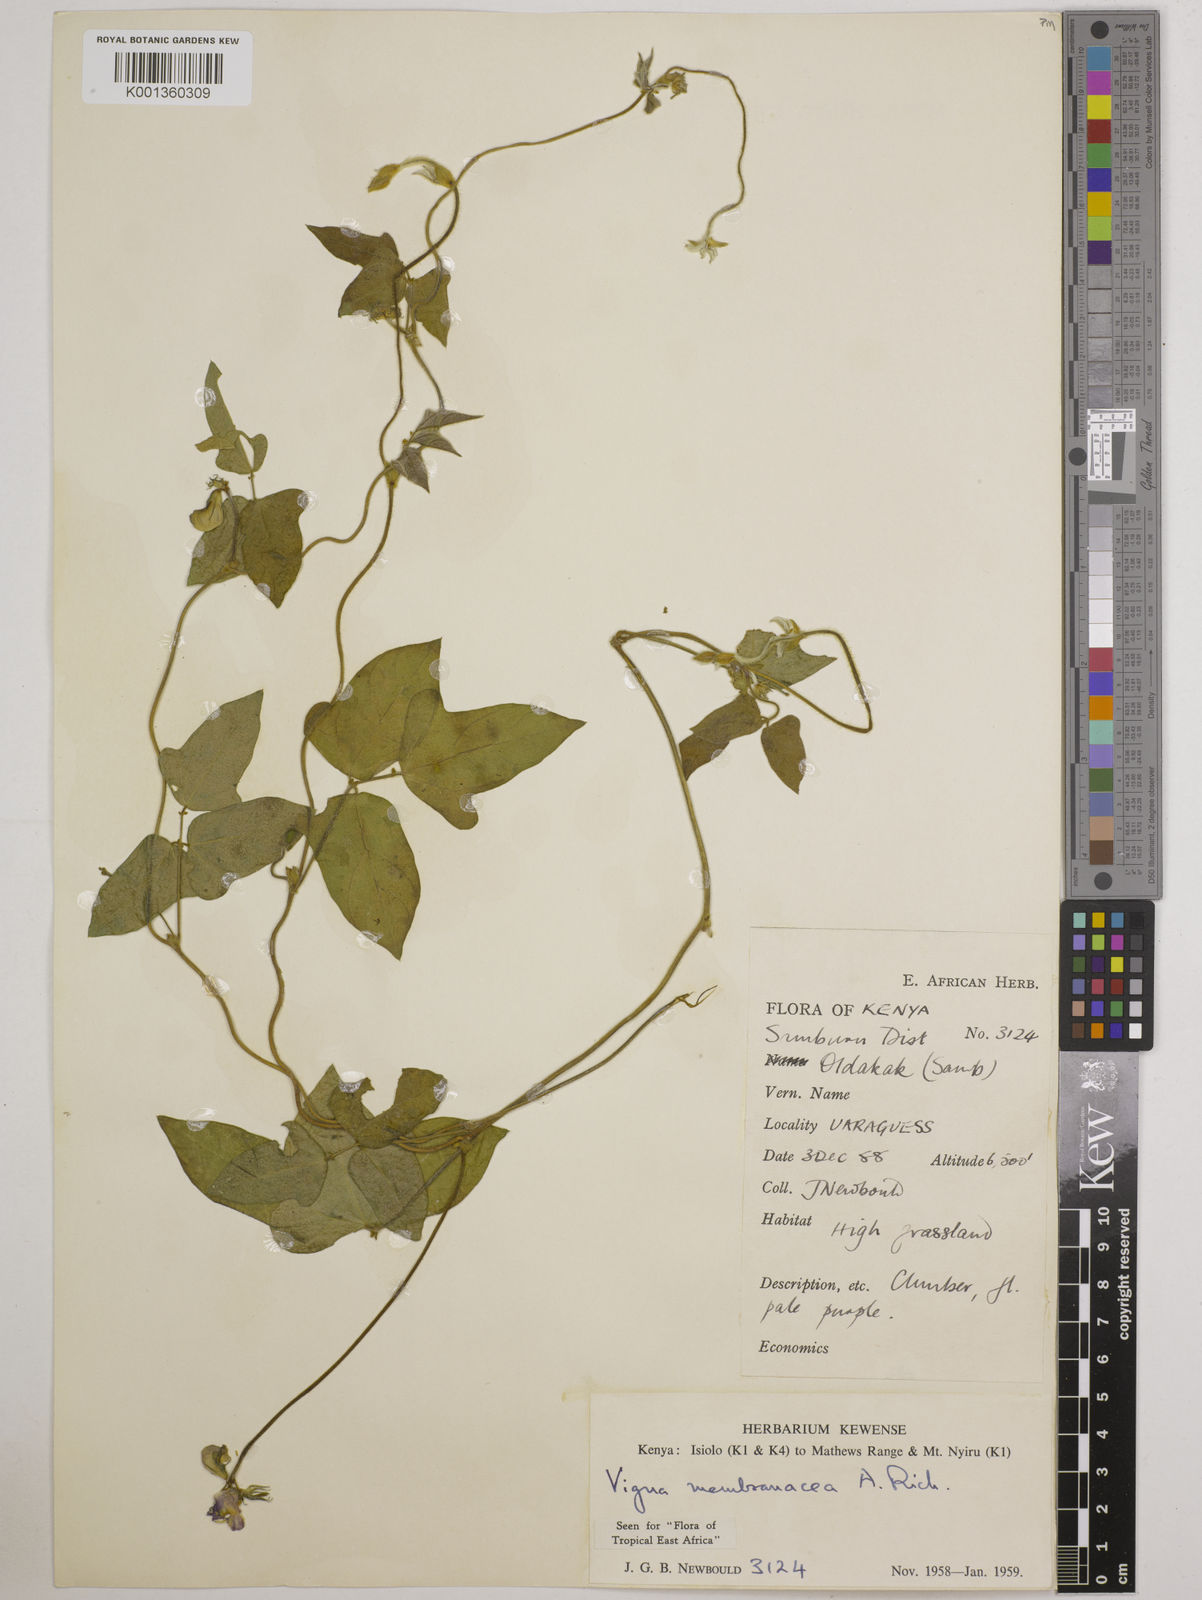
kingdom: Plantae
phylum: Tracheophyta
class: Magnoliopsida
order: Fabales
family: Fabaceae
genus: Vigna
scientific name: Vigna membranacea
